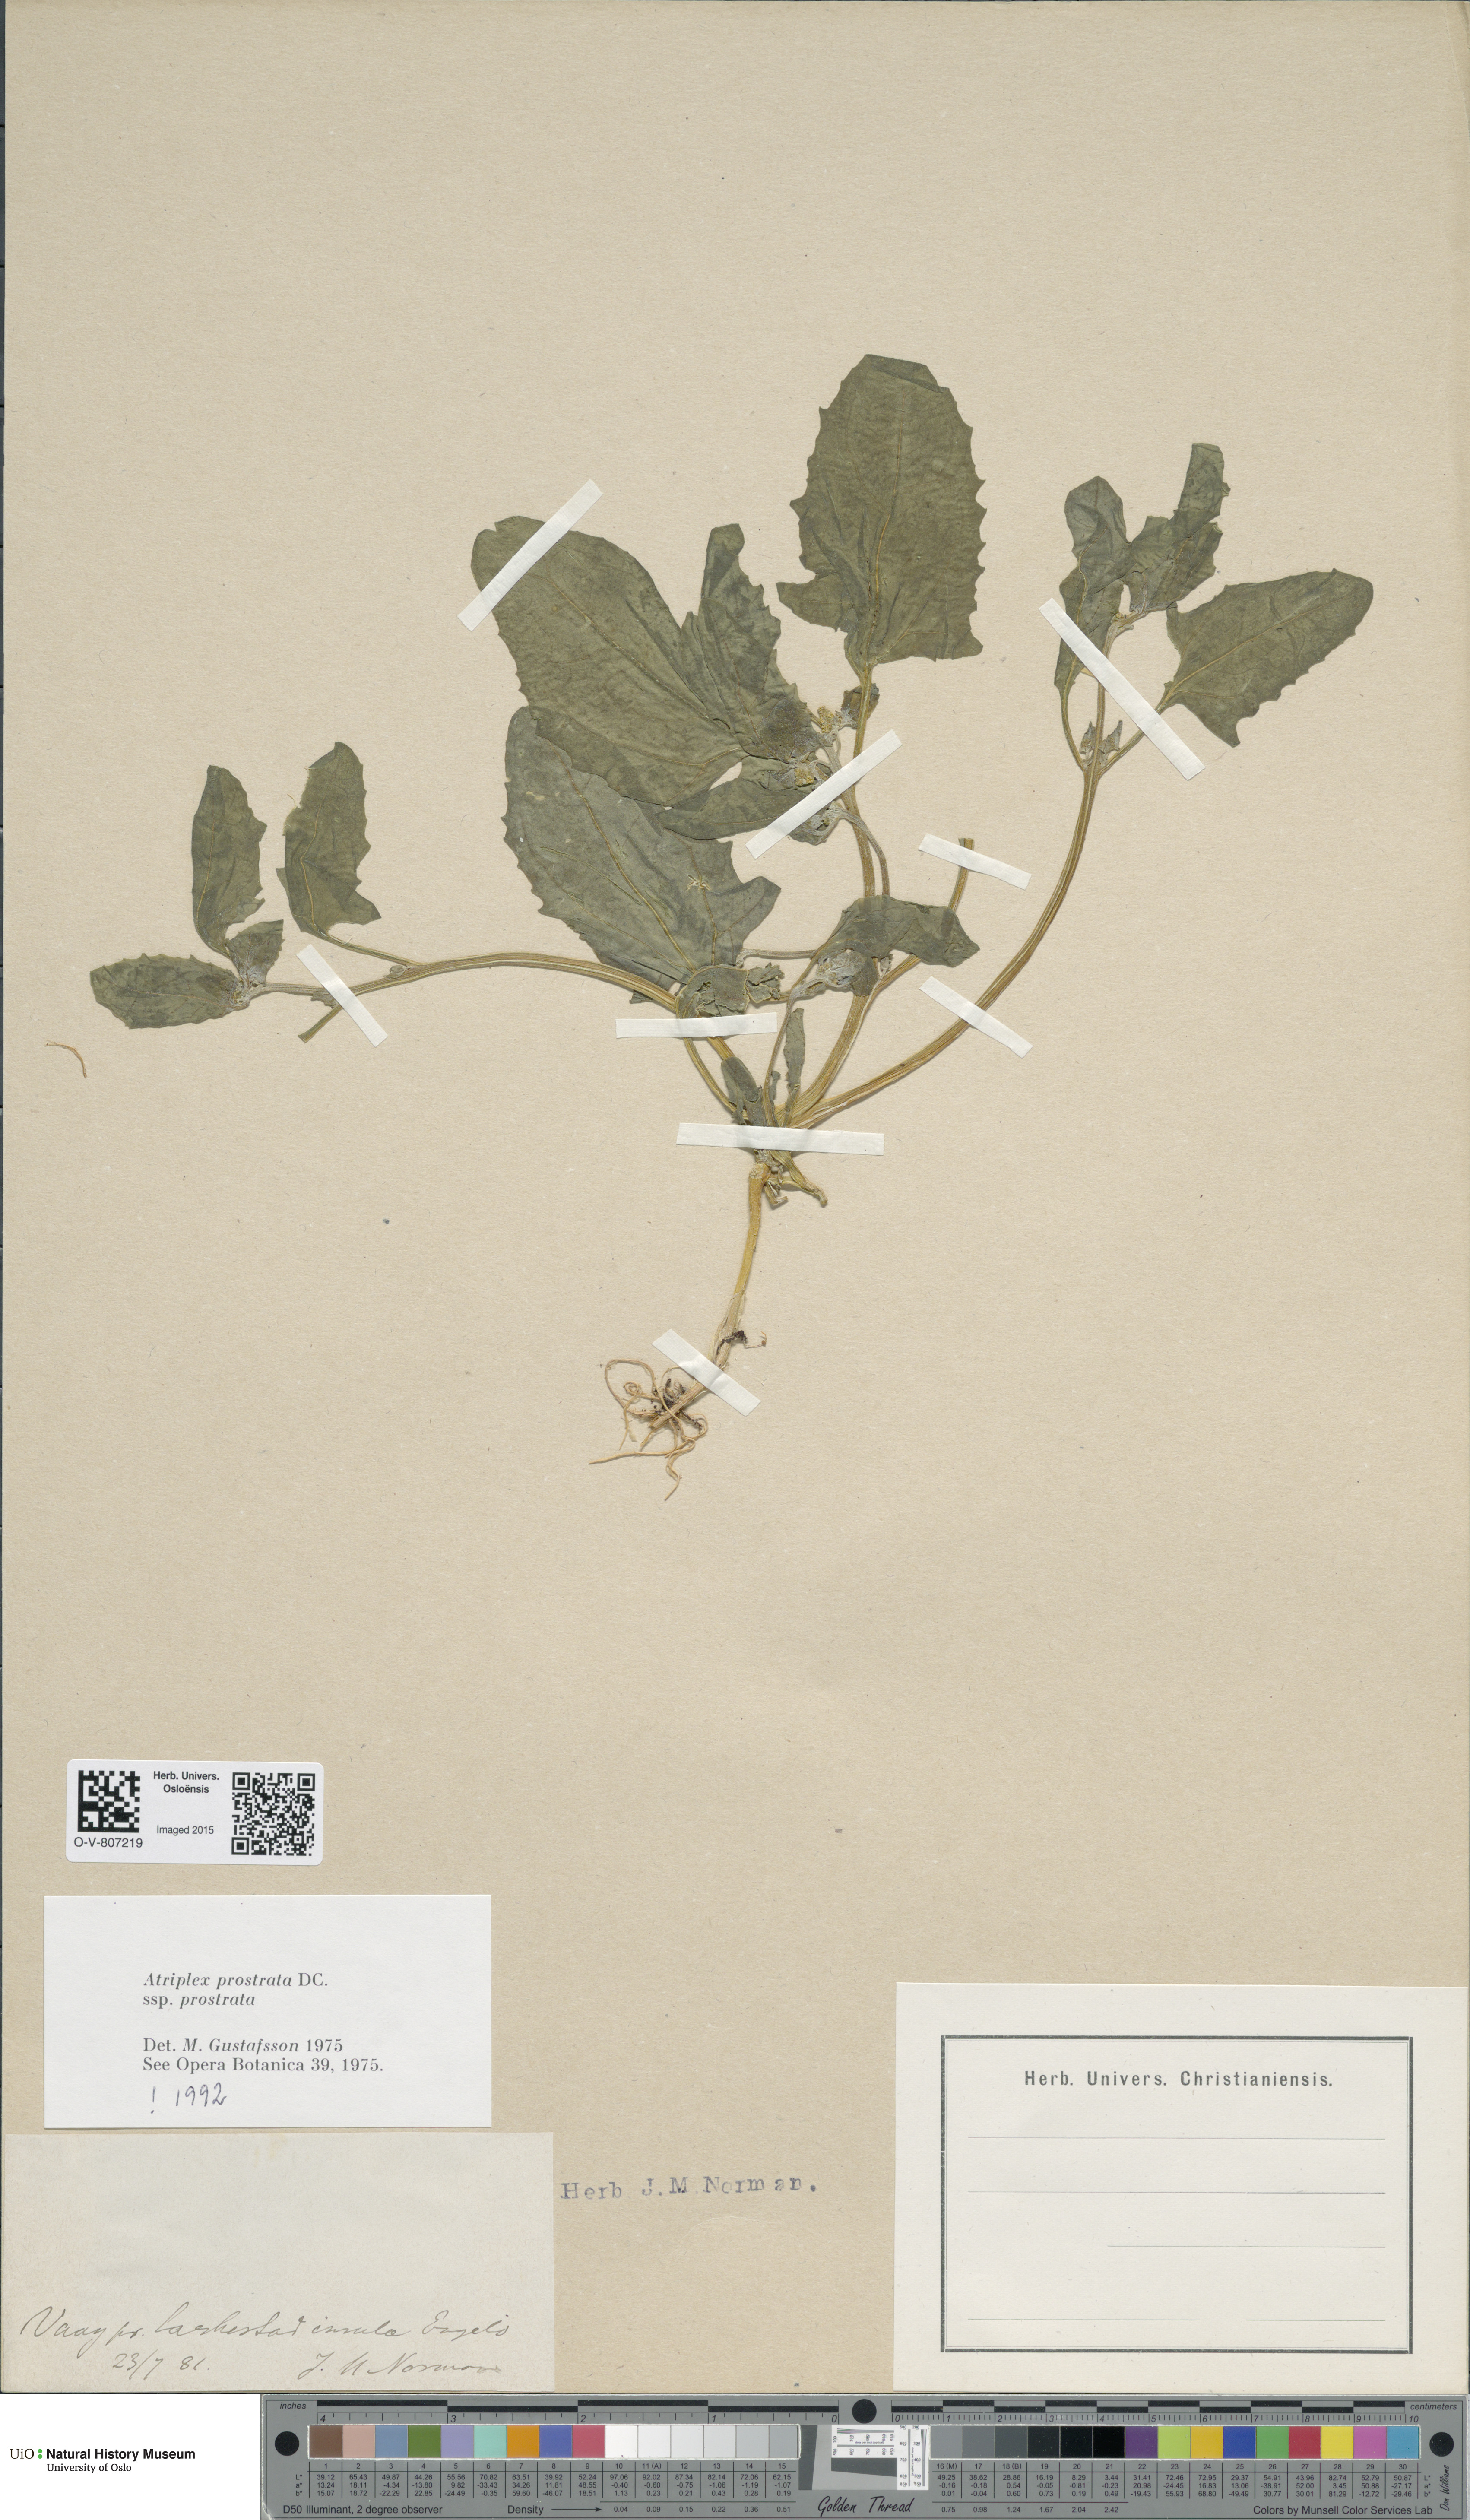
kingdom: Plantae
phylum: Tracheophyta
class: Magnoliopsida
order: Caryophyllales
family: Amaranthaceae
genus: Atriplex
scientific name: Atriplex prostrata
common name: Spear-leaved orache
